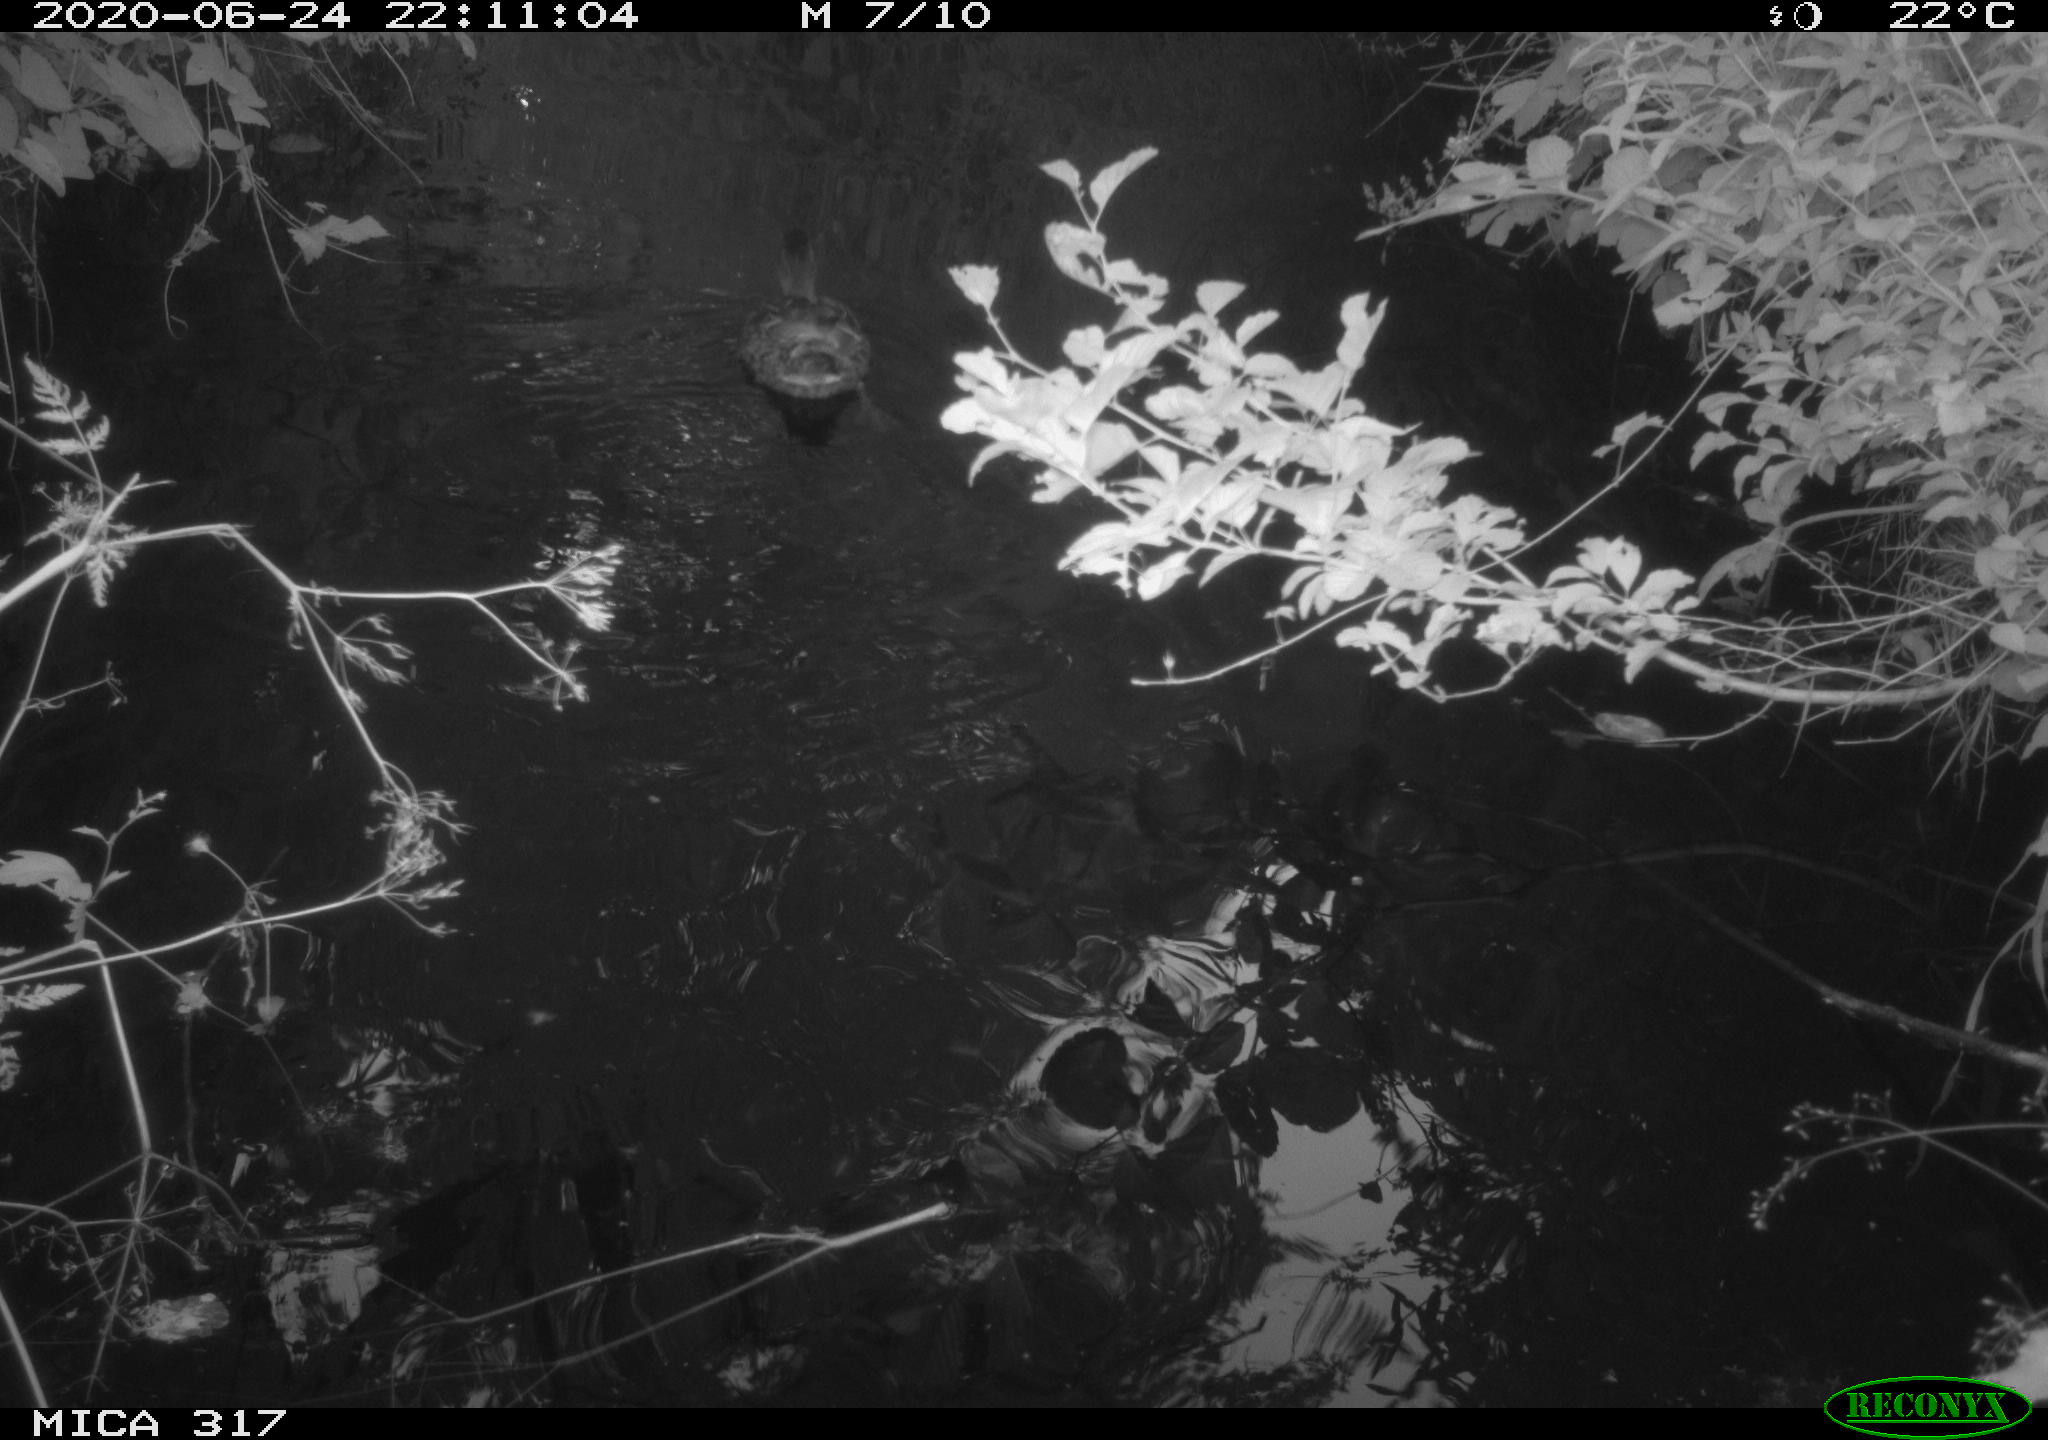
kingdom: Animalia
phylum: Chordata
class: Aves
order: Anseriformes
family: Anatidae
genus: Anas
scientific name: Anas platyrhynchos
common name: Mallard
